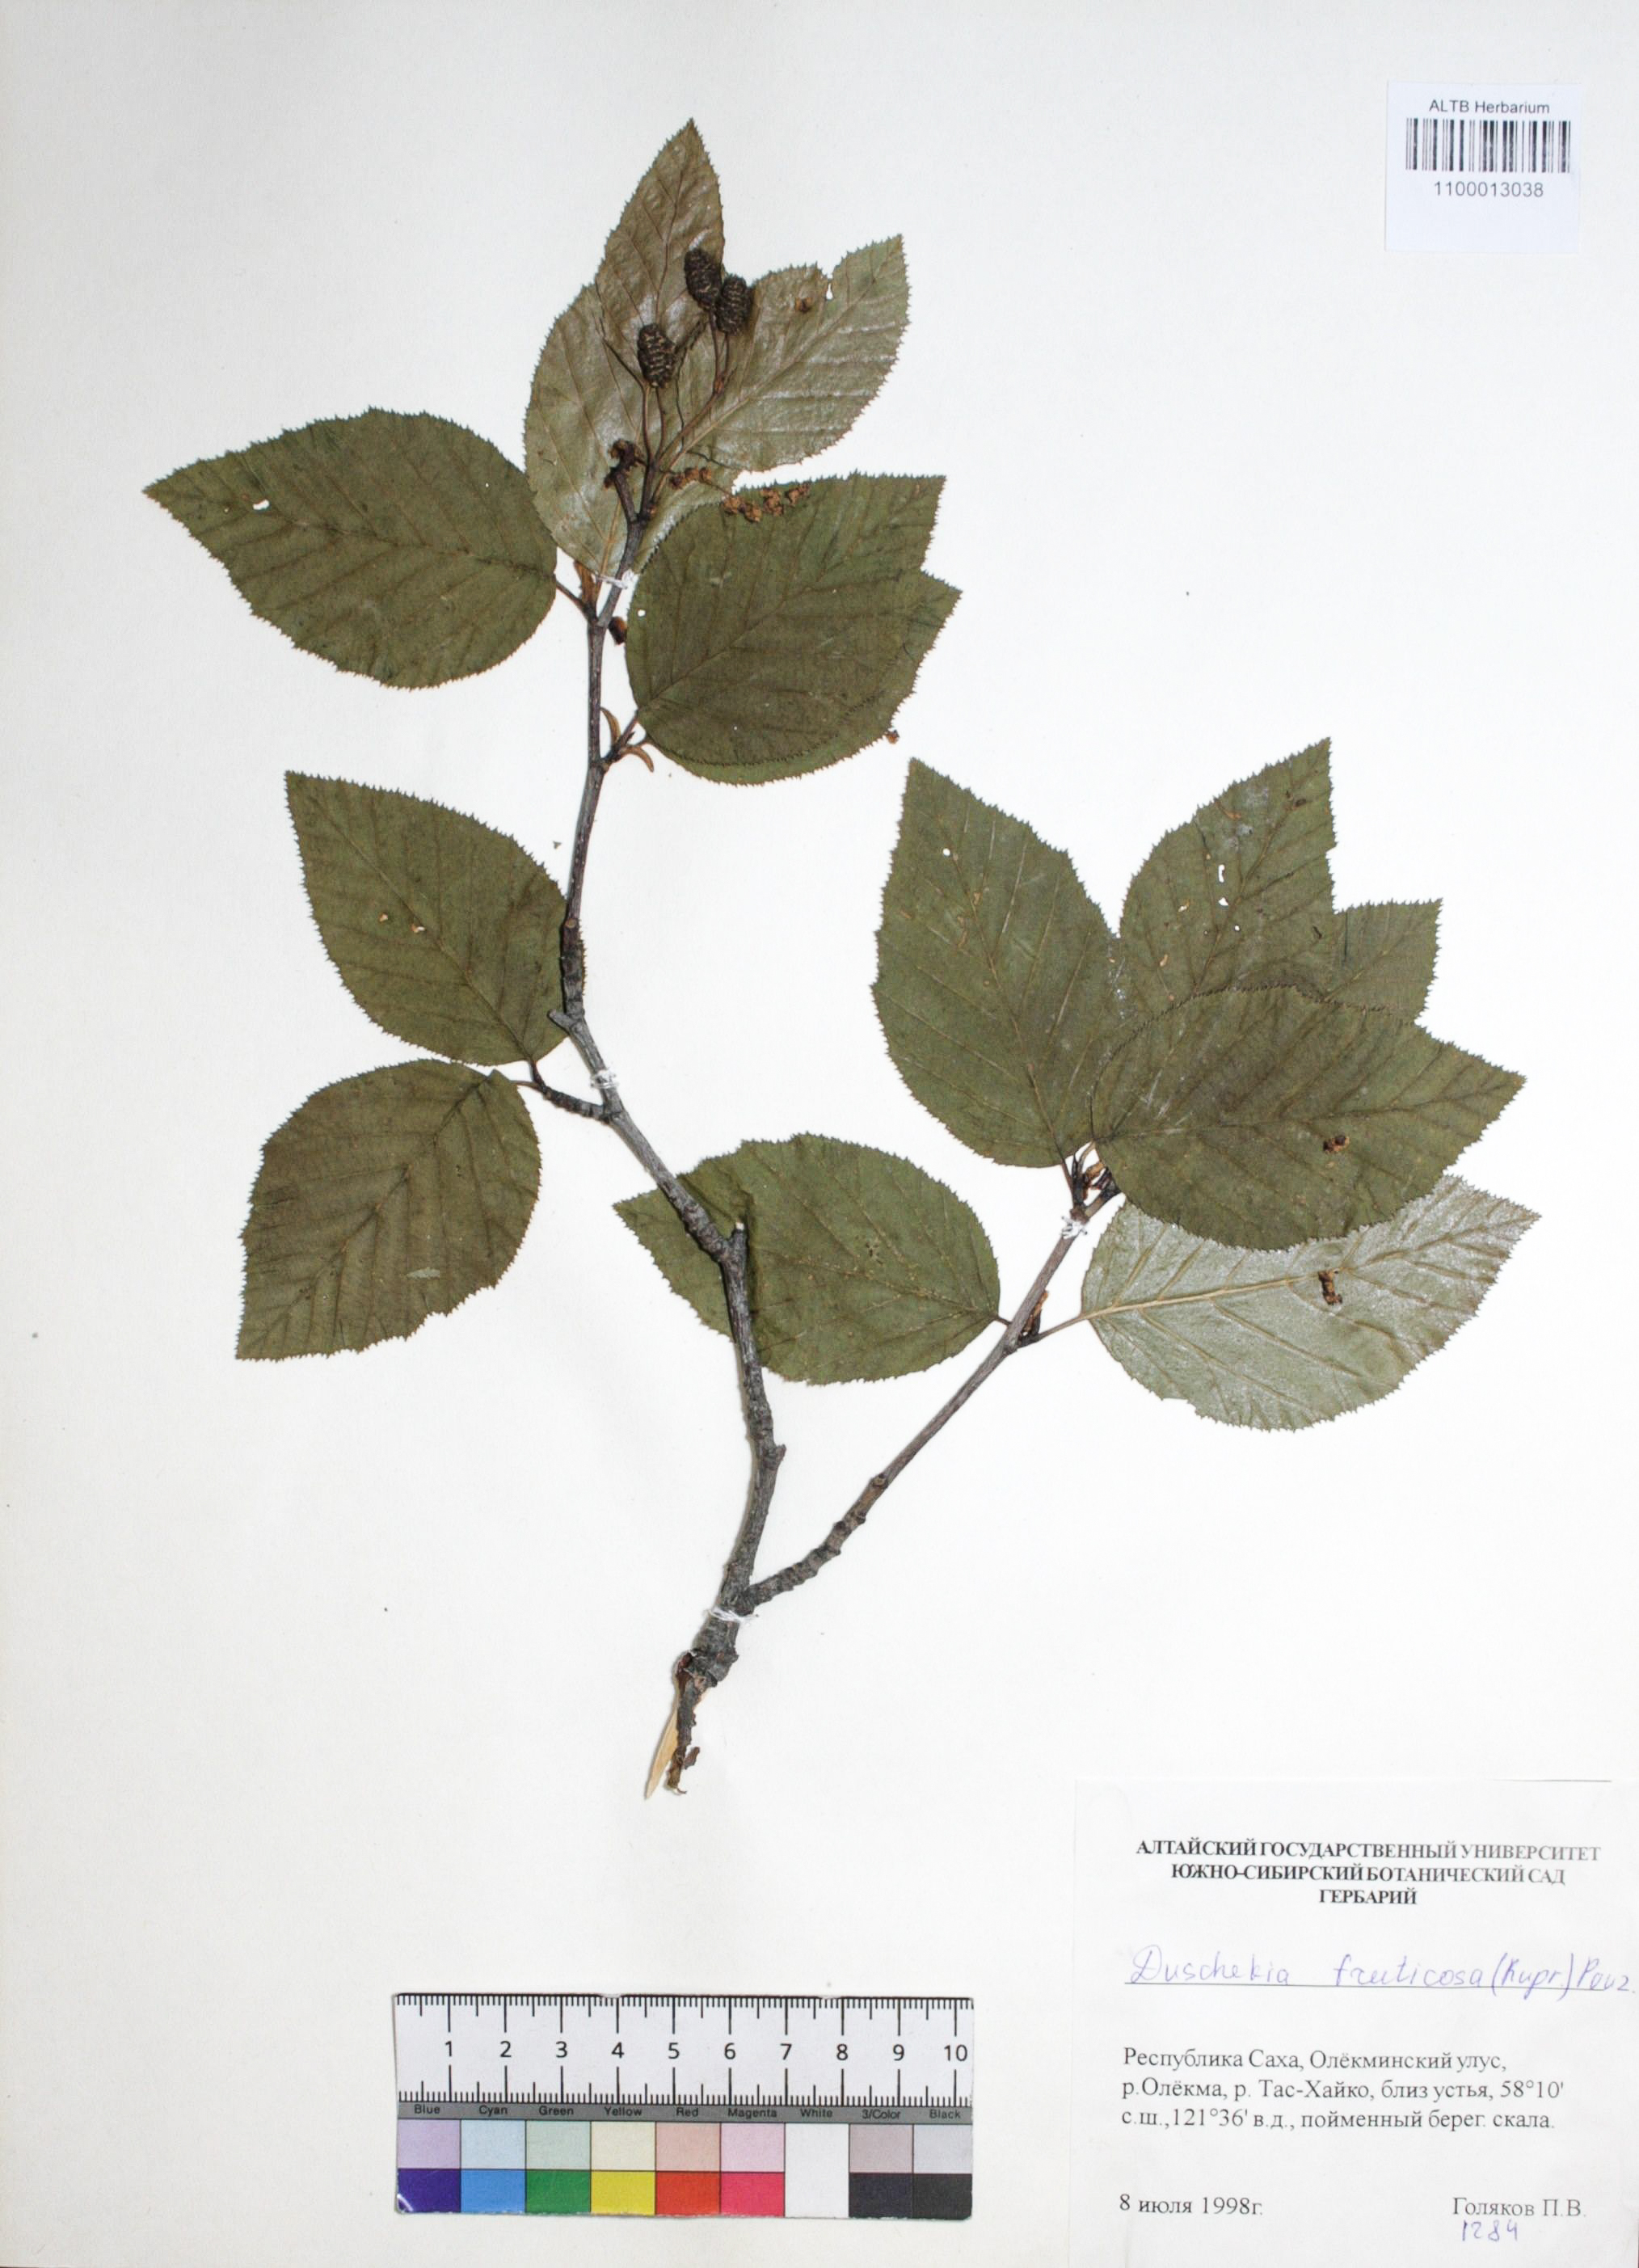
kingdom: Plantae
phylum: Tracheophyta
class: Magnoliopsida
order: Fagales
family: Betulaceae
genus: Alnus
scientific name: Alnus alnobetula
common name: Green alder
